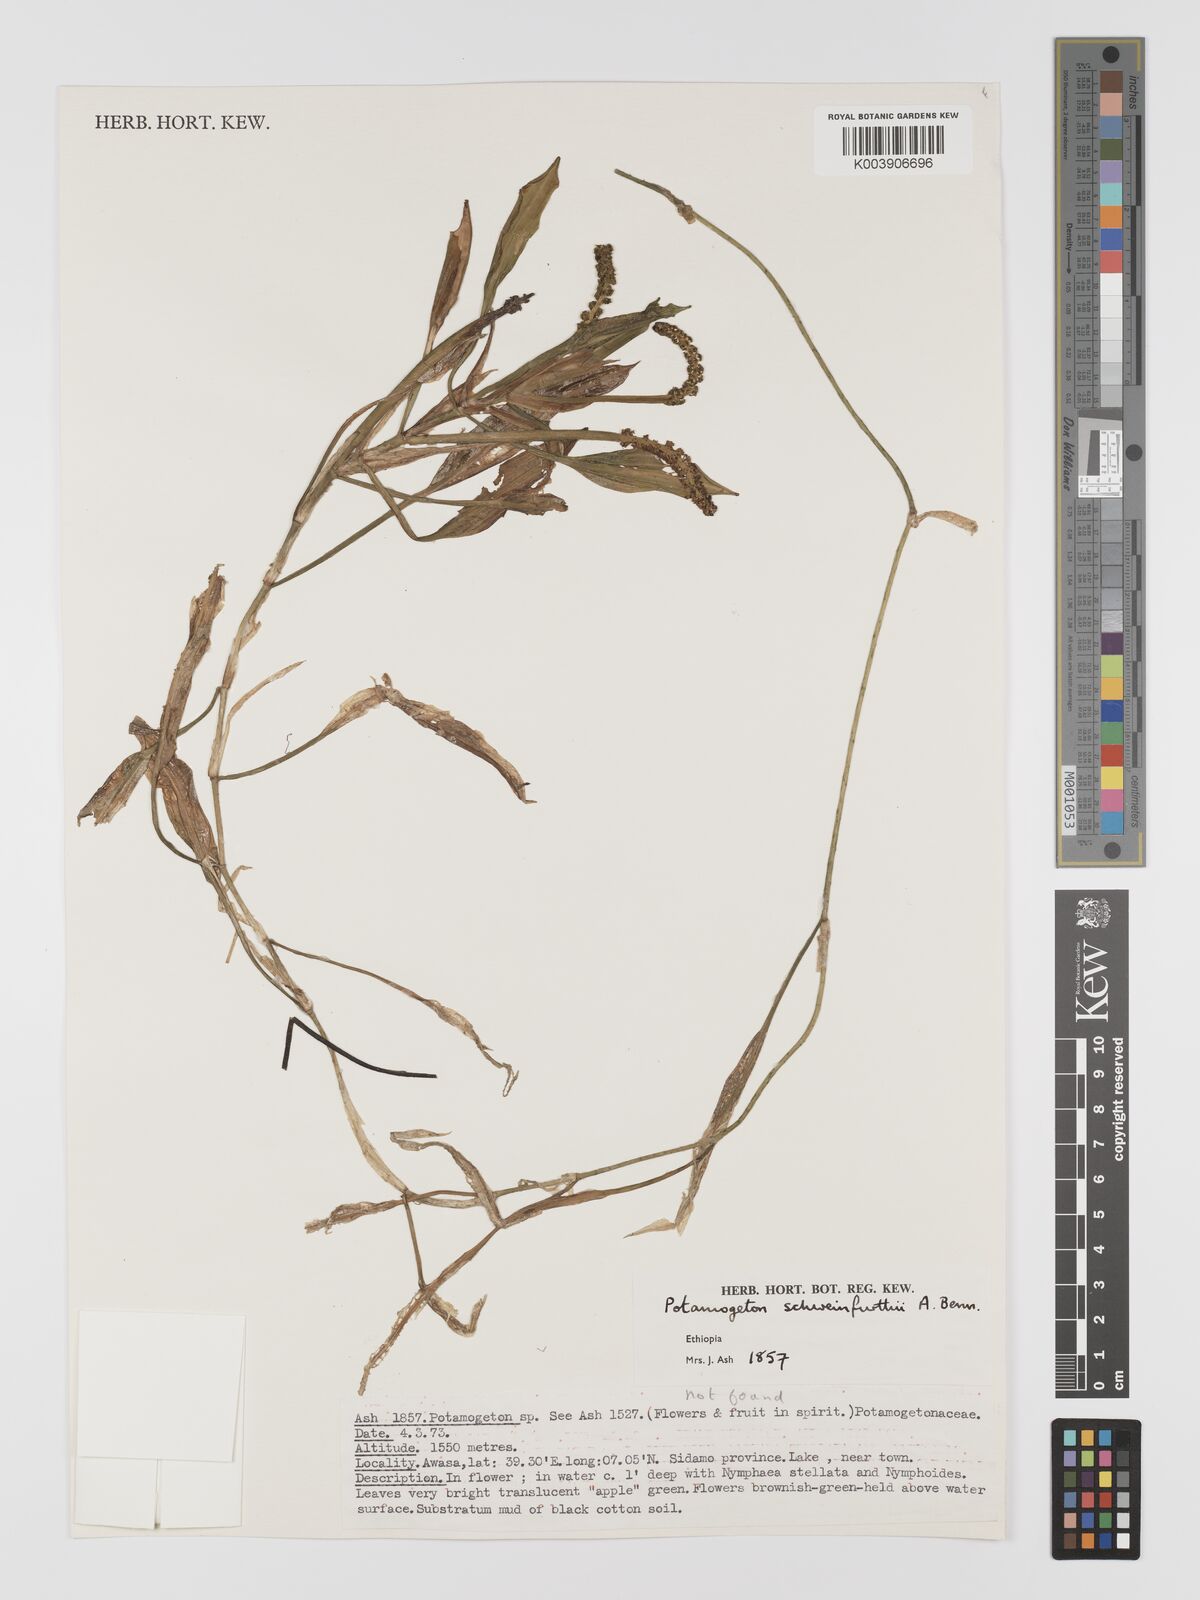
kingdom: Plantae
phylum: Tracheophyta
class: Liliopsida
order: Alismatales
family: Potamogetonaceae
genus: Potamogeton
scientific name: Potamogeton schweinfurthii
